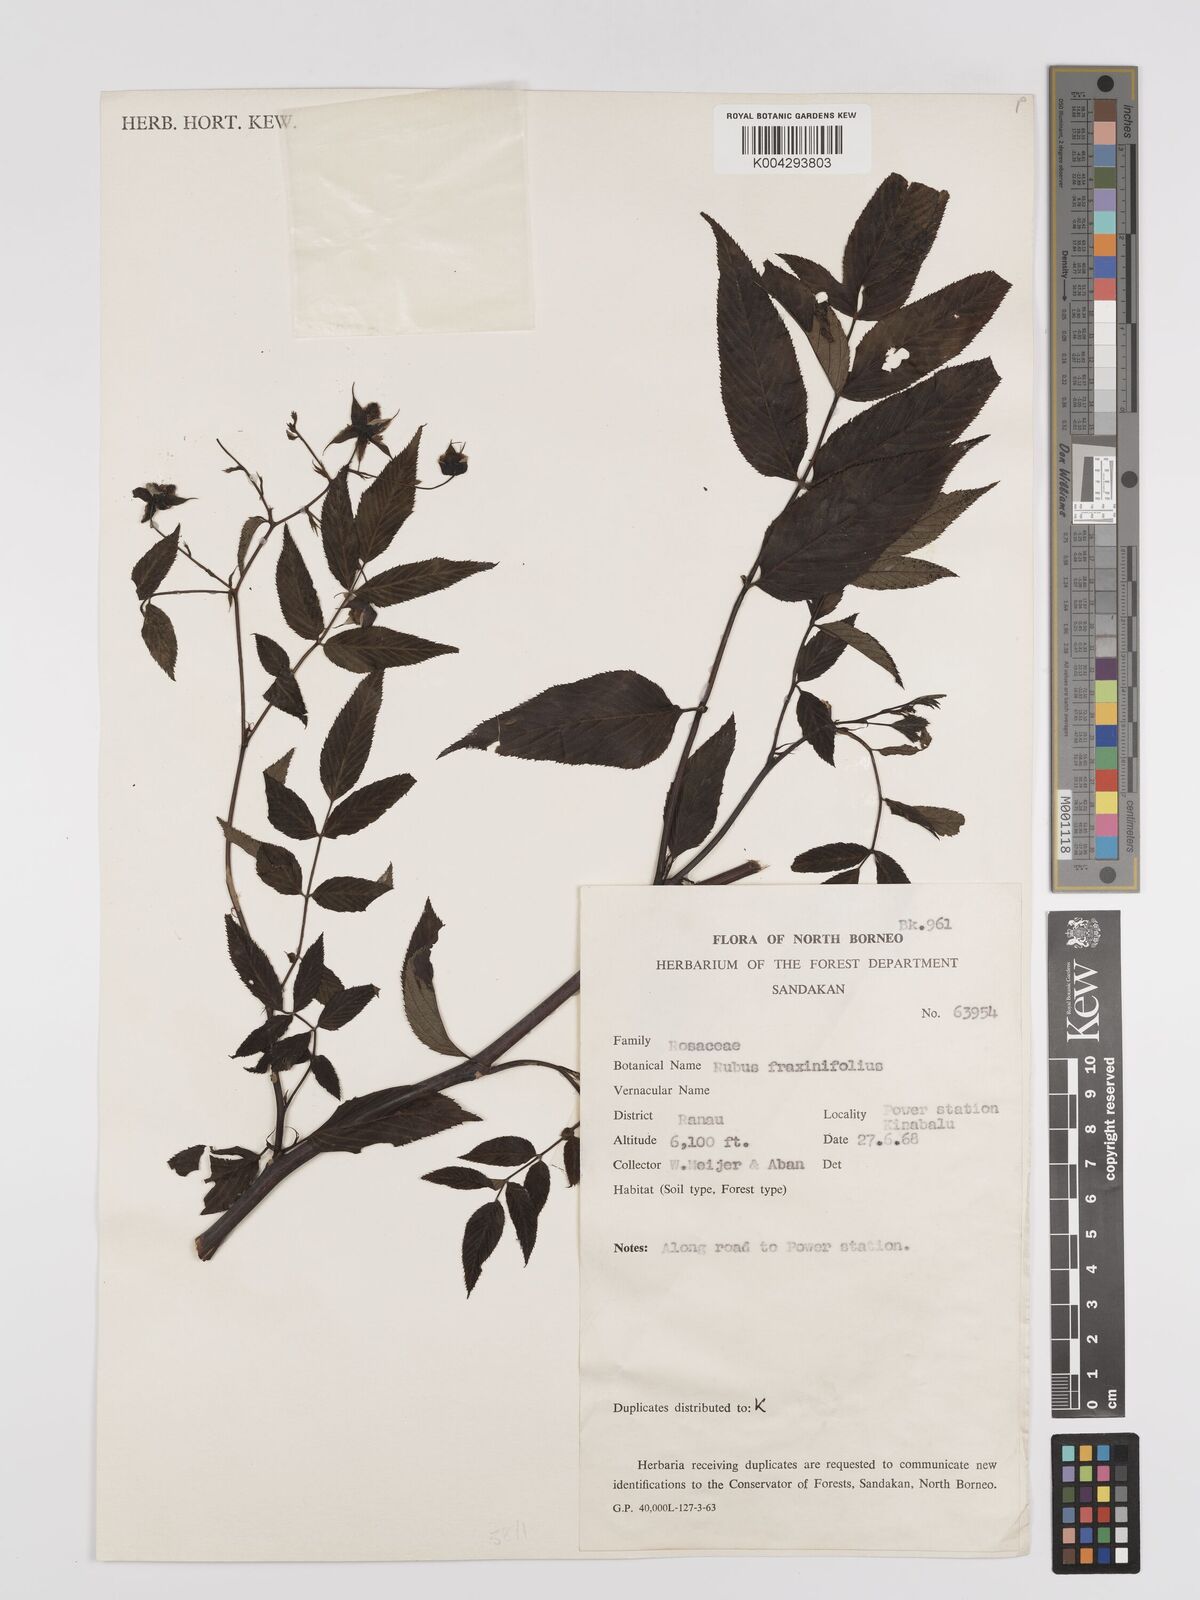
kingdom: Plantae
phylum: Tracheophyta
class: Magnoliopsida
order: Rosales
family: Rosaceae
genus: Rubus
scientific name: Rubus fraxinifolius
